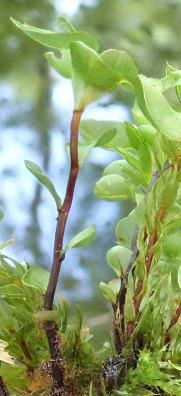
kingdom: Plantae
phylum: Bryophyta
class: Bryopsida
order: Bryales
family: Mniaceae
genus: Rhizomnium
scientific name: Rhizomnium punctatum
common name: Almindelig bredblad
